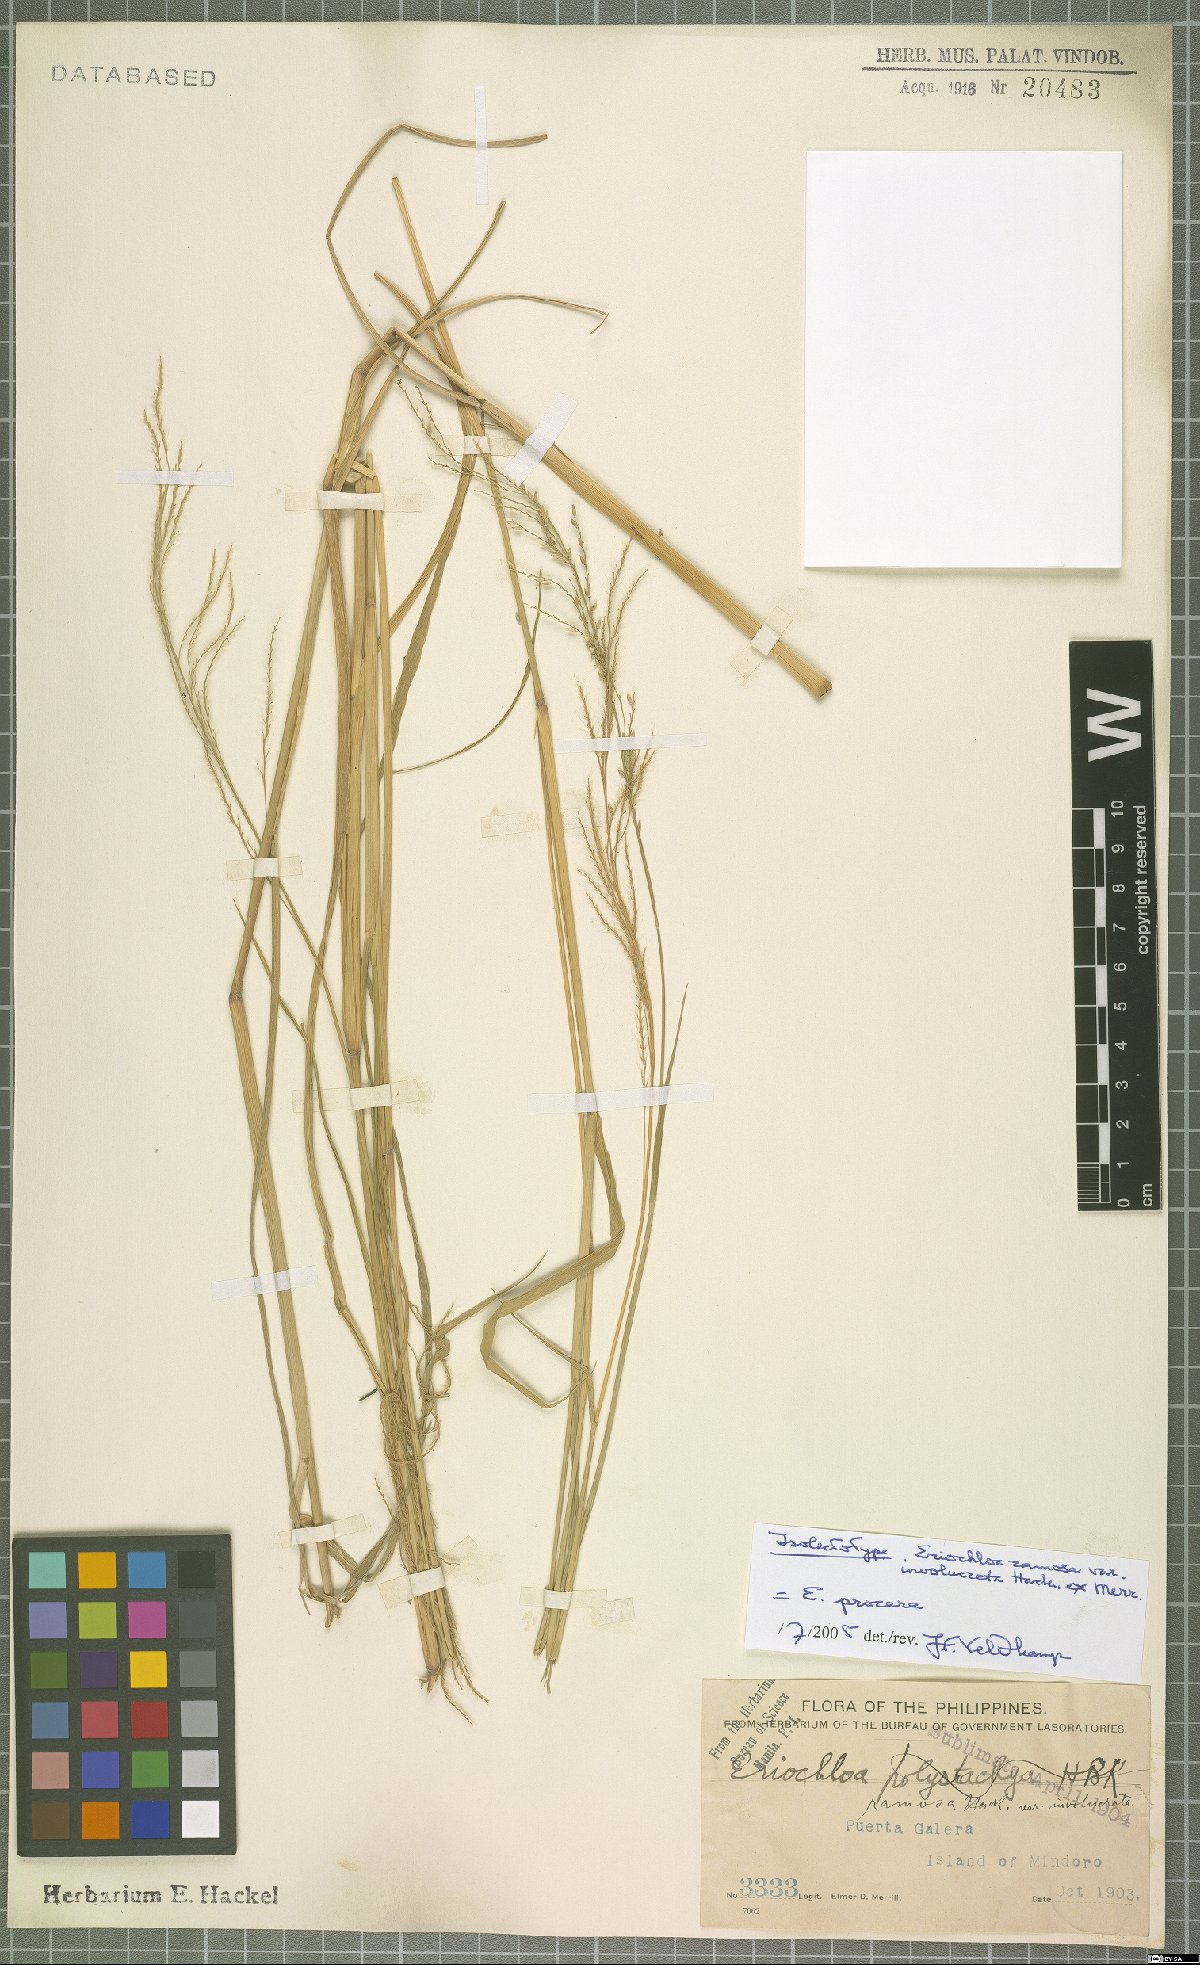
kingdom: Plantae
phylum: Tracheophyta
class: Liliopsida
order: Poales
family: Poaceae
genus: Eriochloa
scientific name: Eriochloa procera
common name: Spring grass
